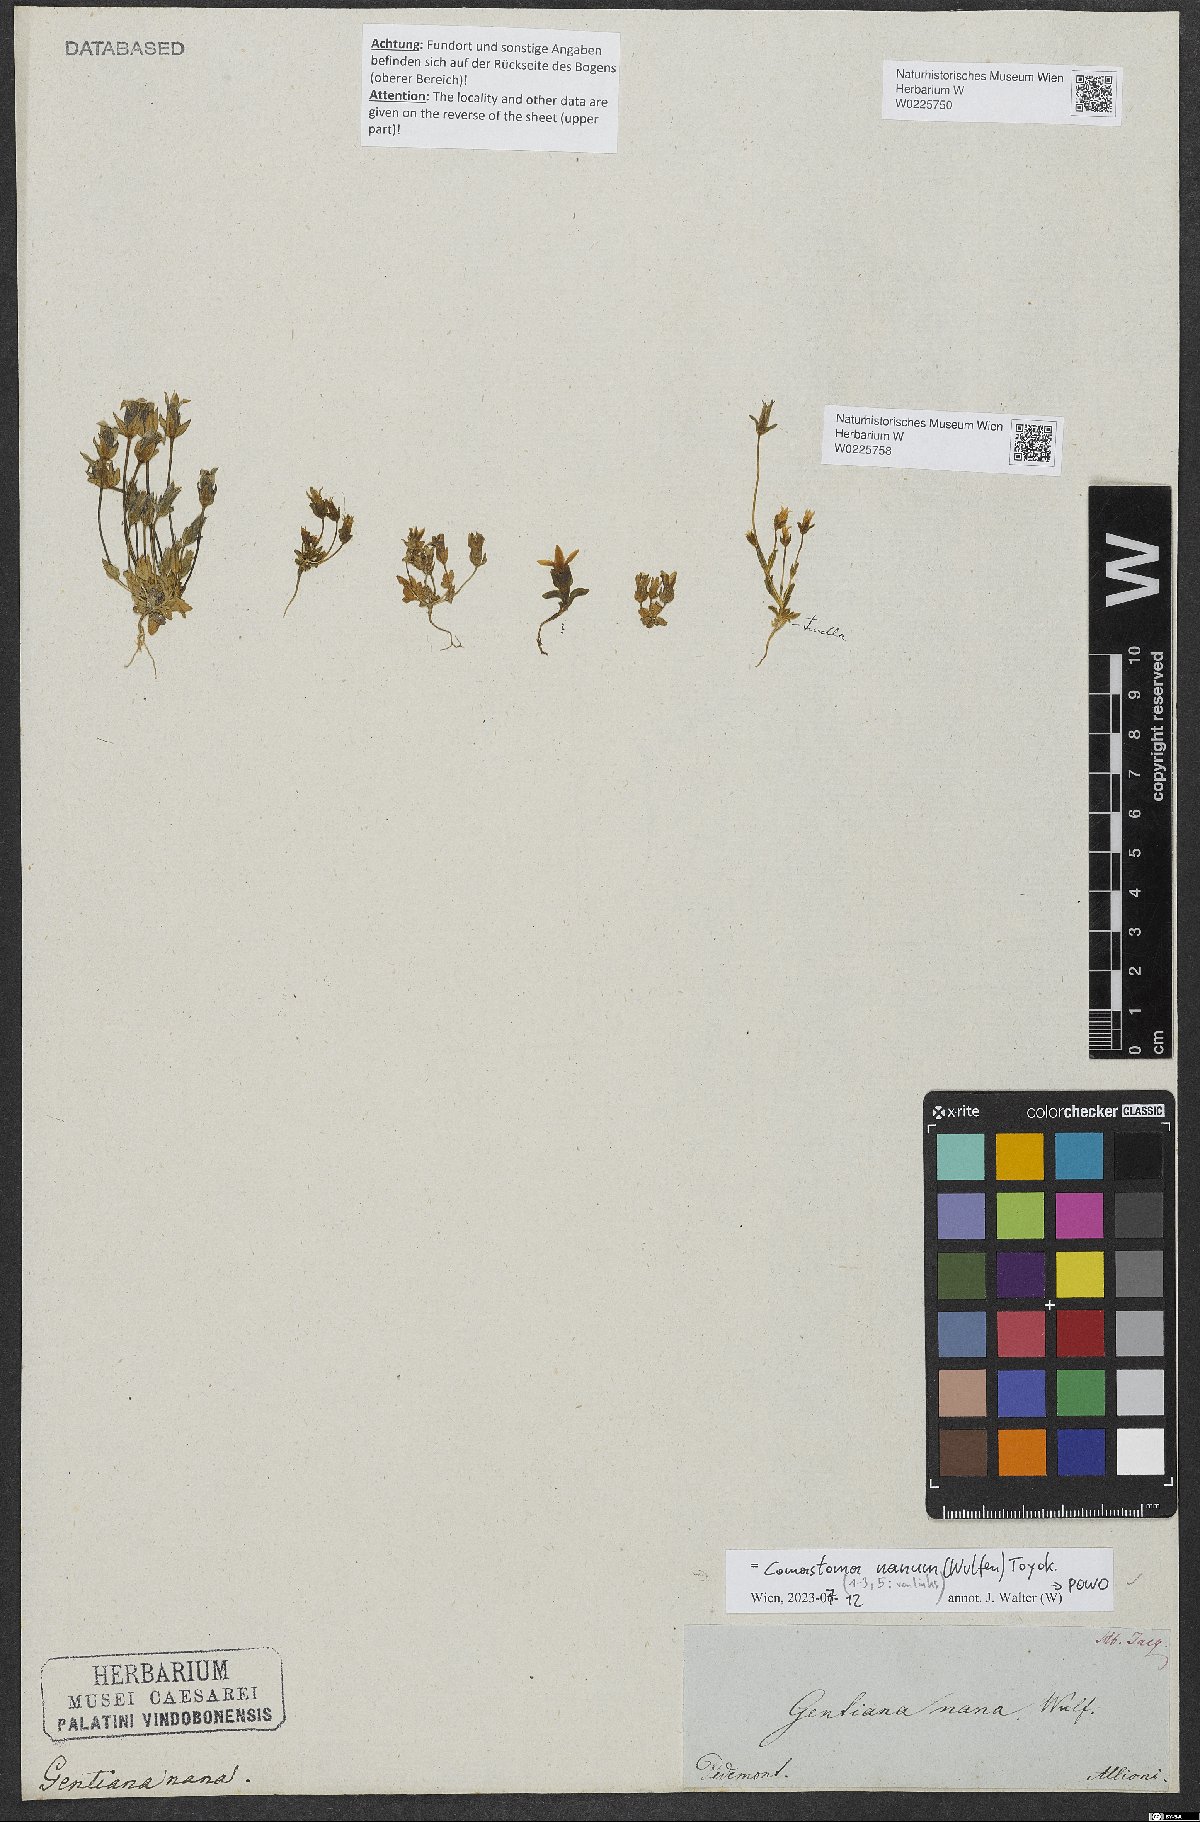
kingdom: Plantae
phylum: Tracheophyta
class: Magnoliopsida
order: Gentianales
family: Gentianaceae
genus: Comastoma
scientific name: Comastoma nanum
